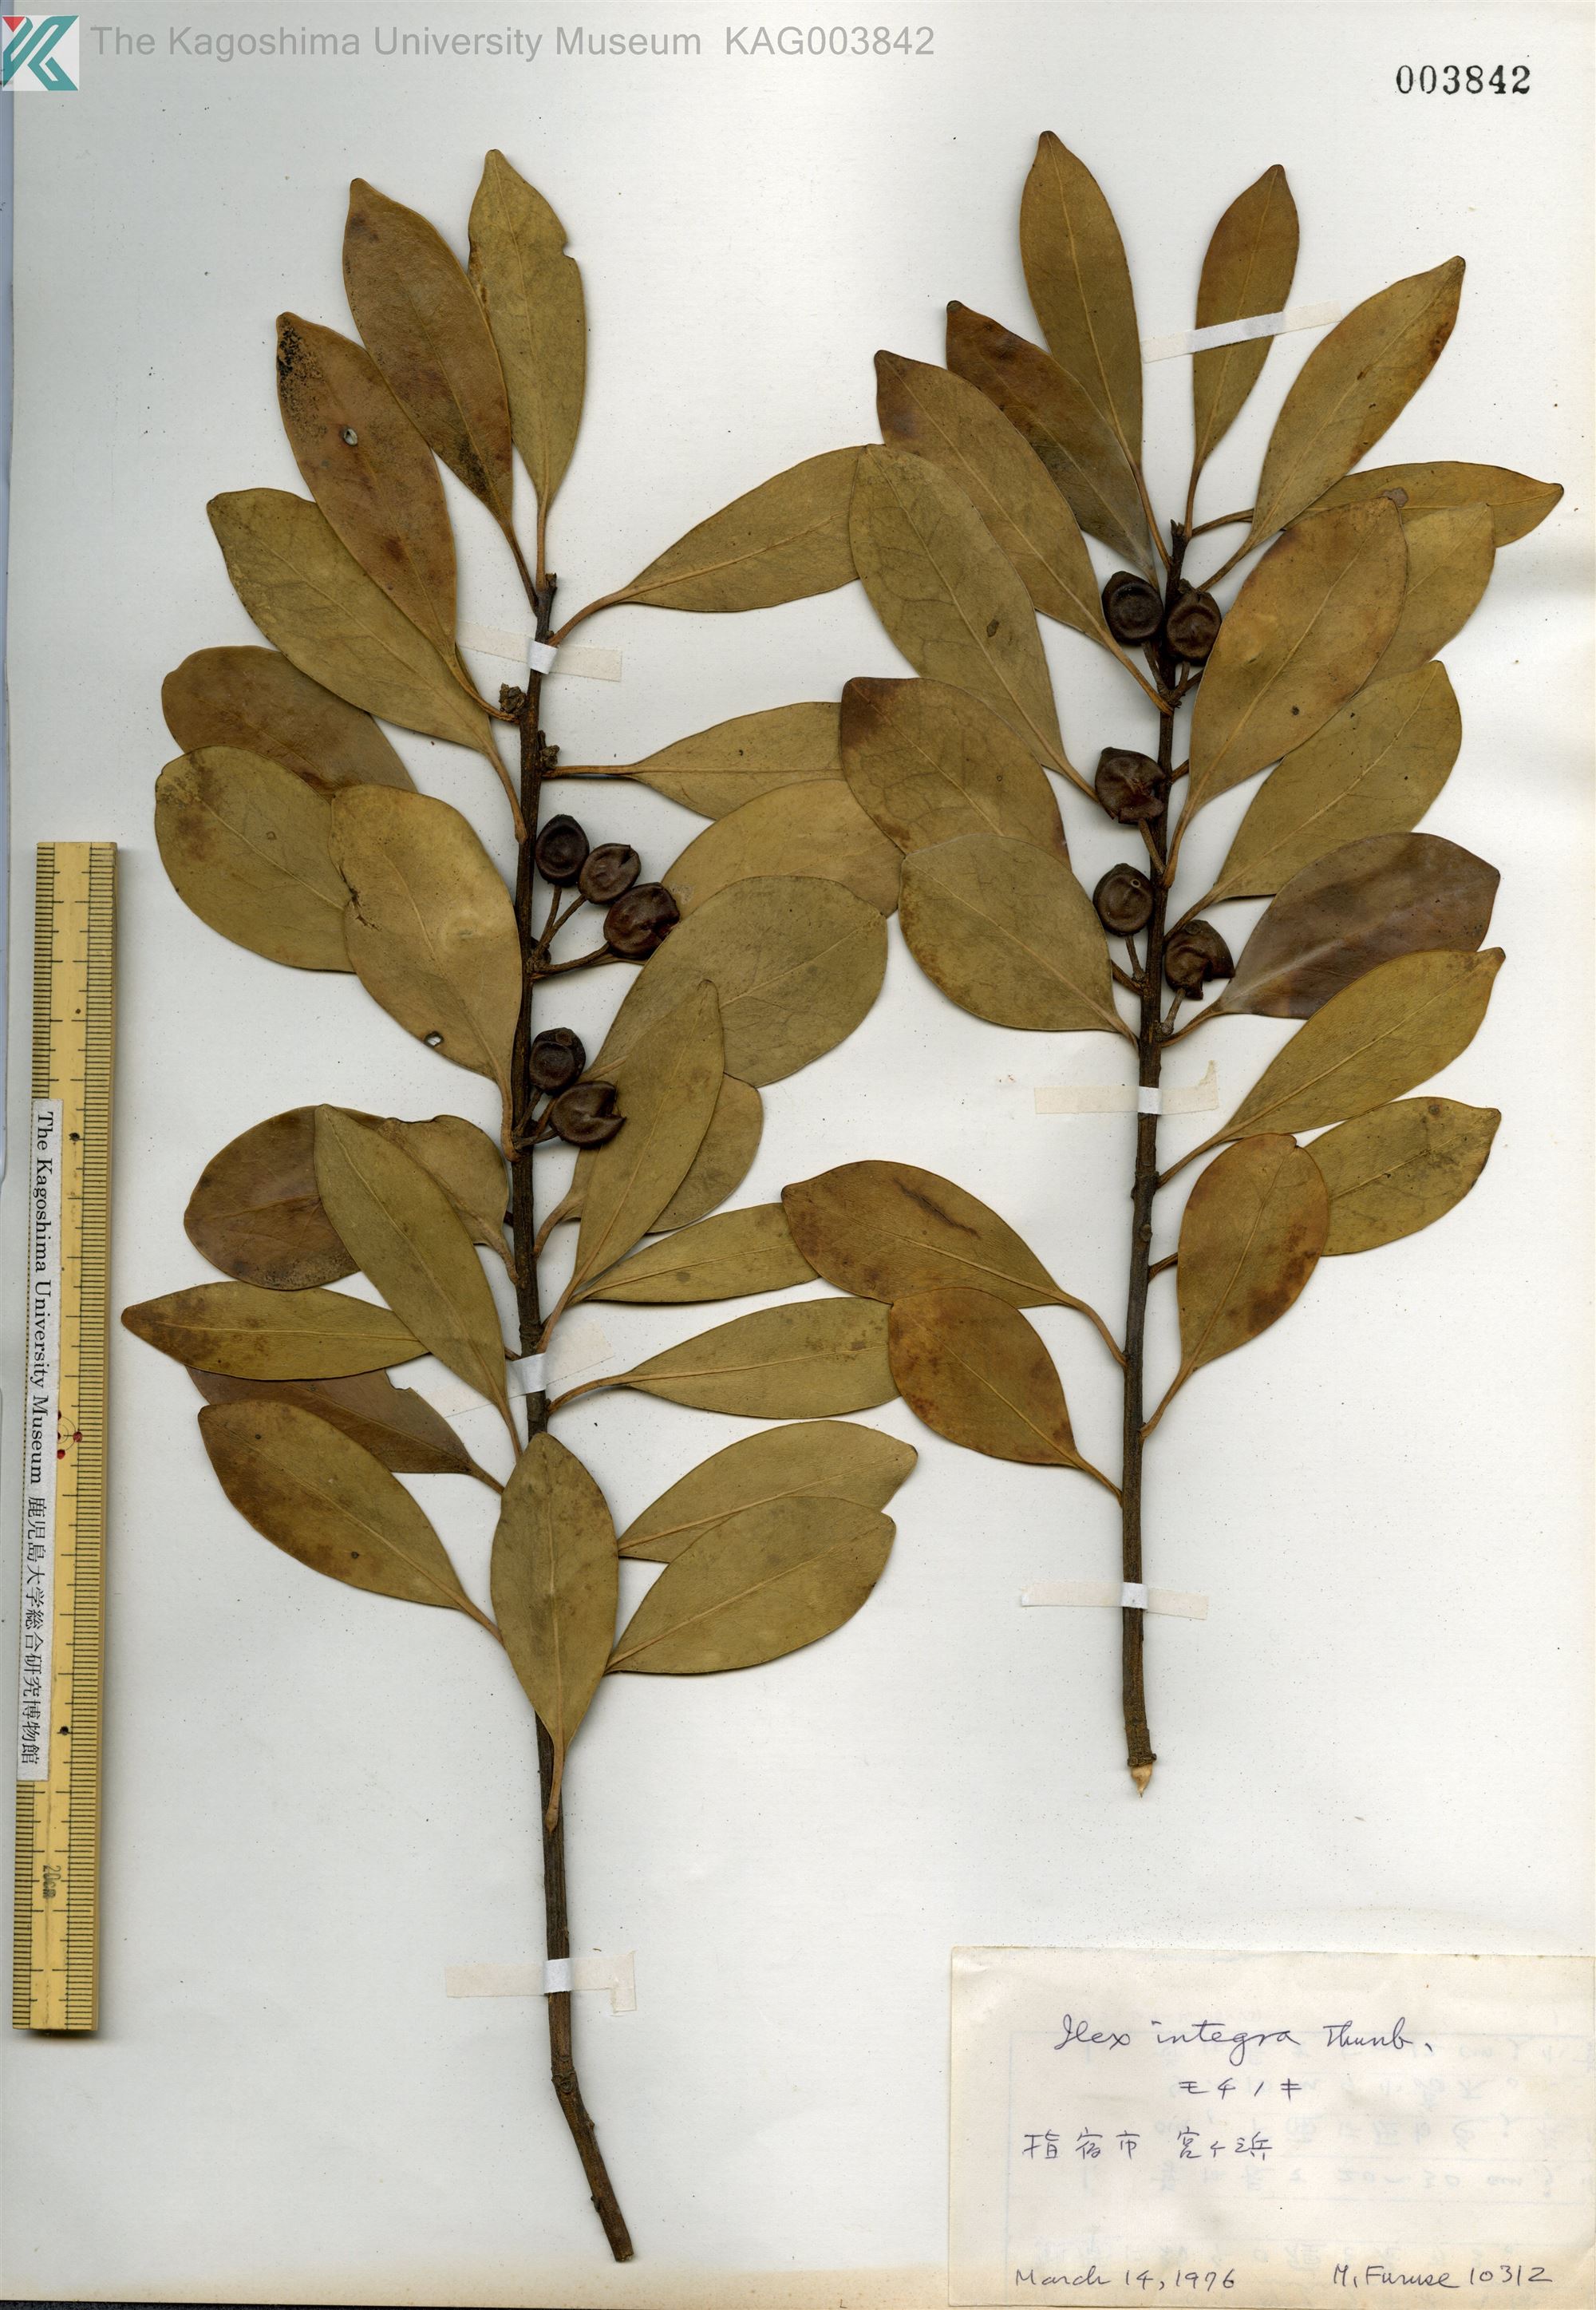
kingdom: Plantae
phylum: Tracheophyta
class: Magnoliopsida
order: Aquifoliales
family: Aquifoliaceae
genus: Ilex
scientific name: Ilex integra
